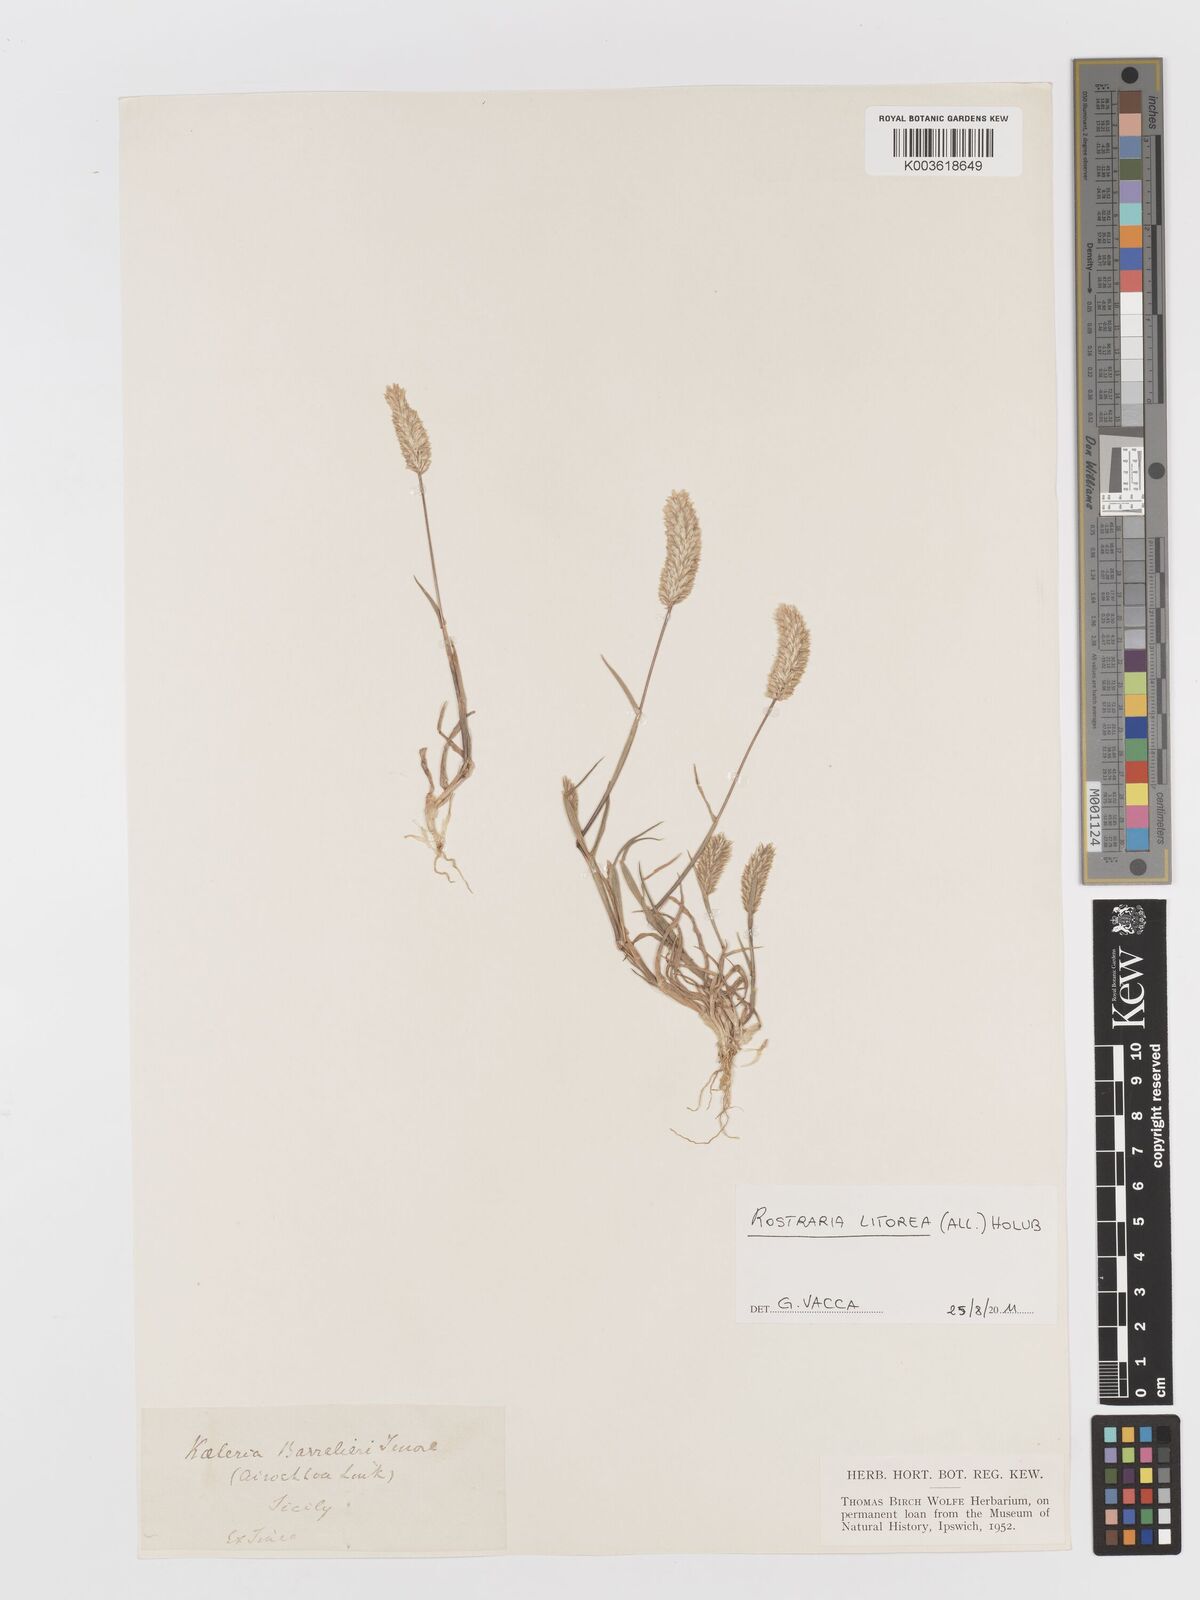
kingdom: Plantae
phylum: Tracheophyta
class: Liliopsida
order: Poales
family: Poaceae
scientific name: Poaceae
